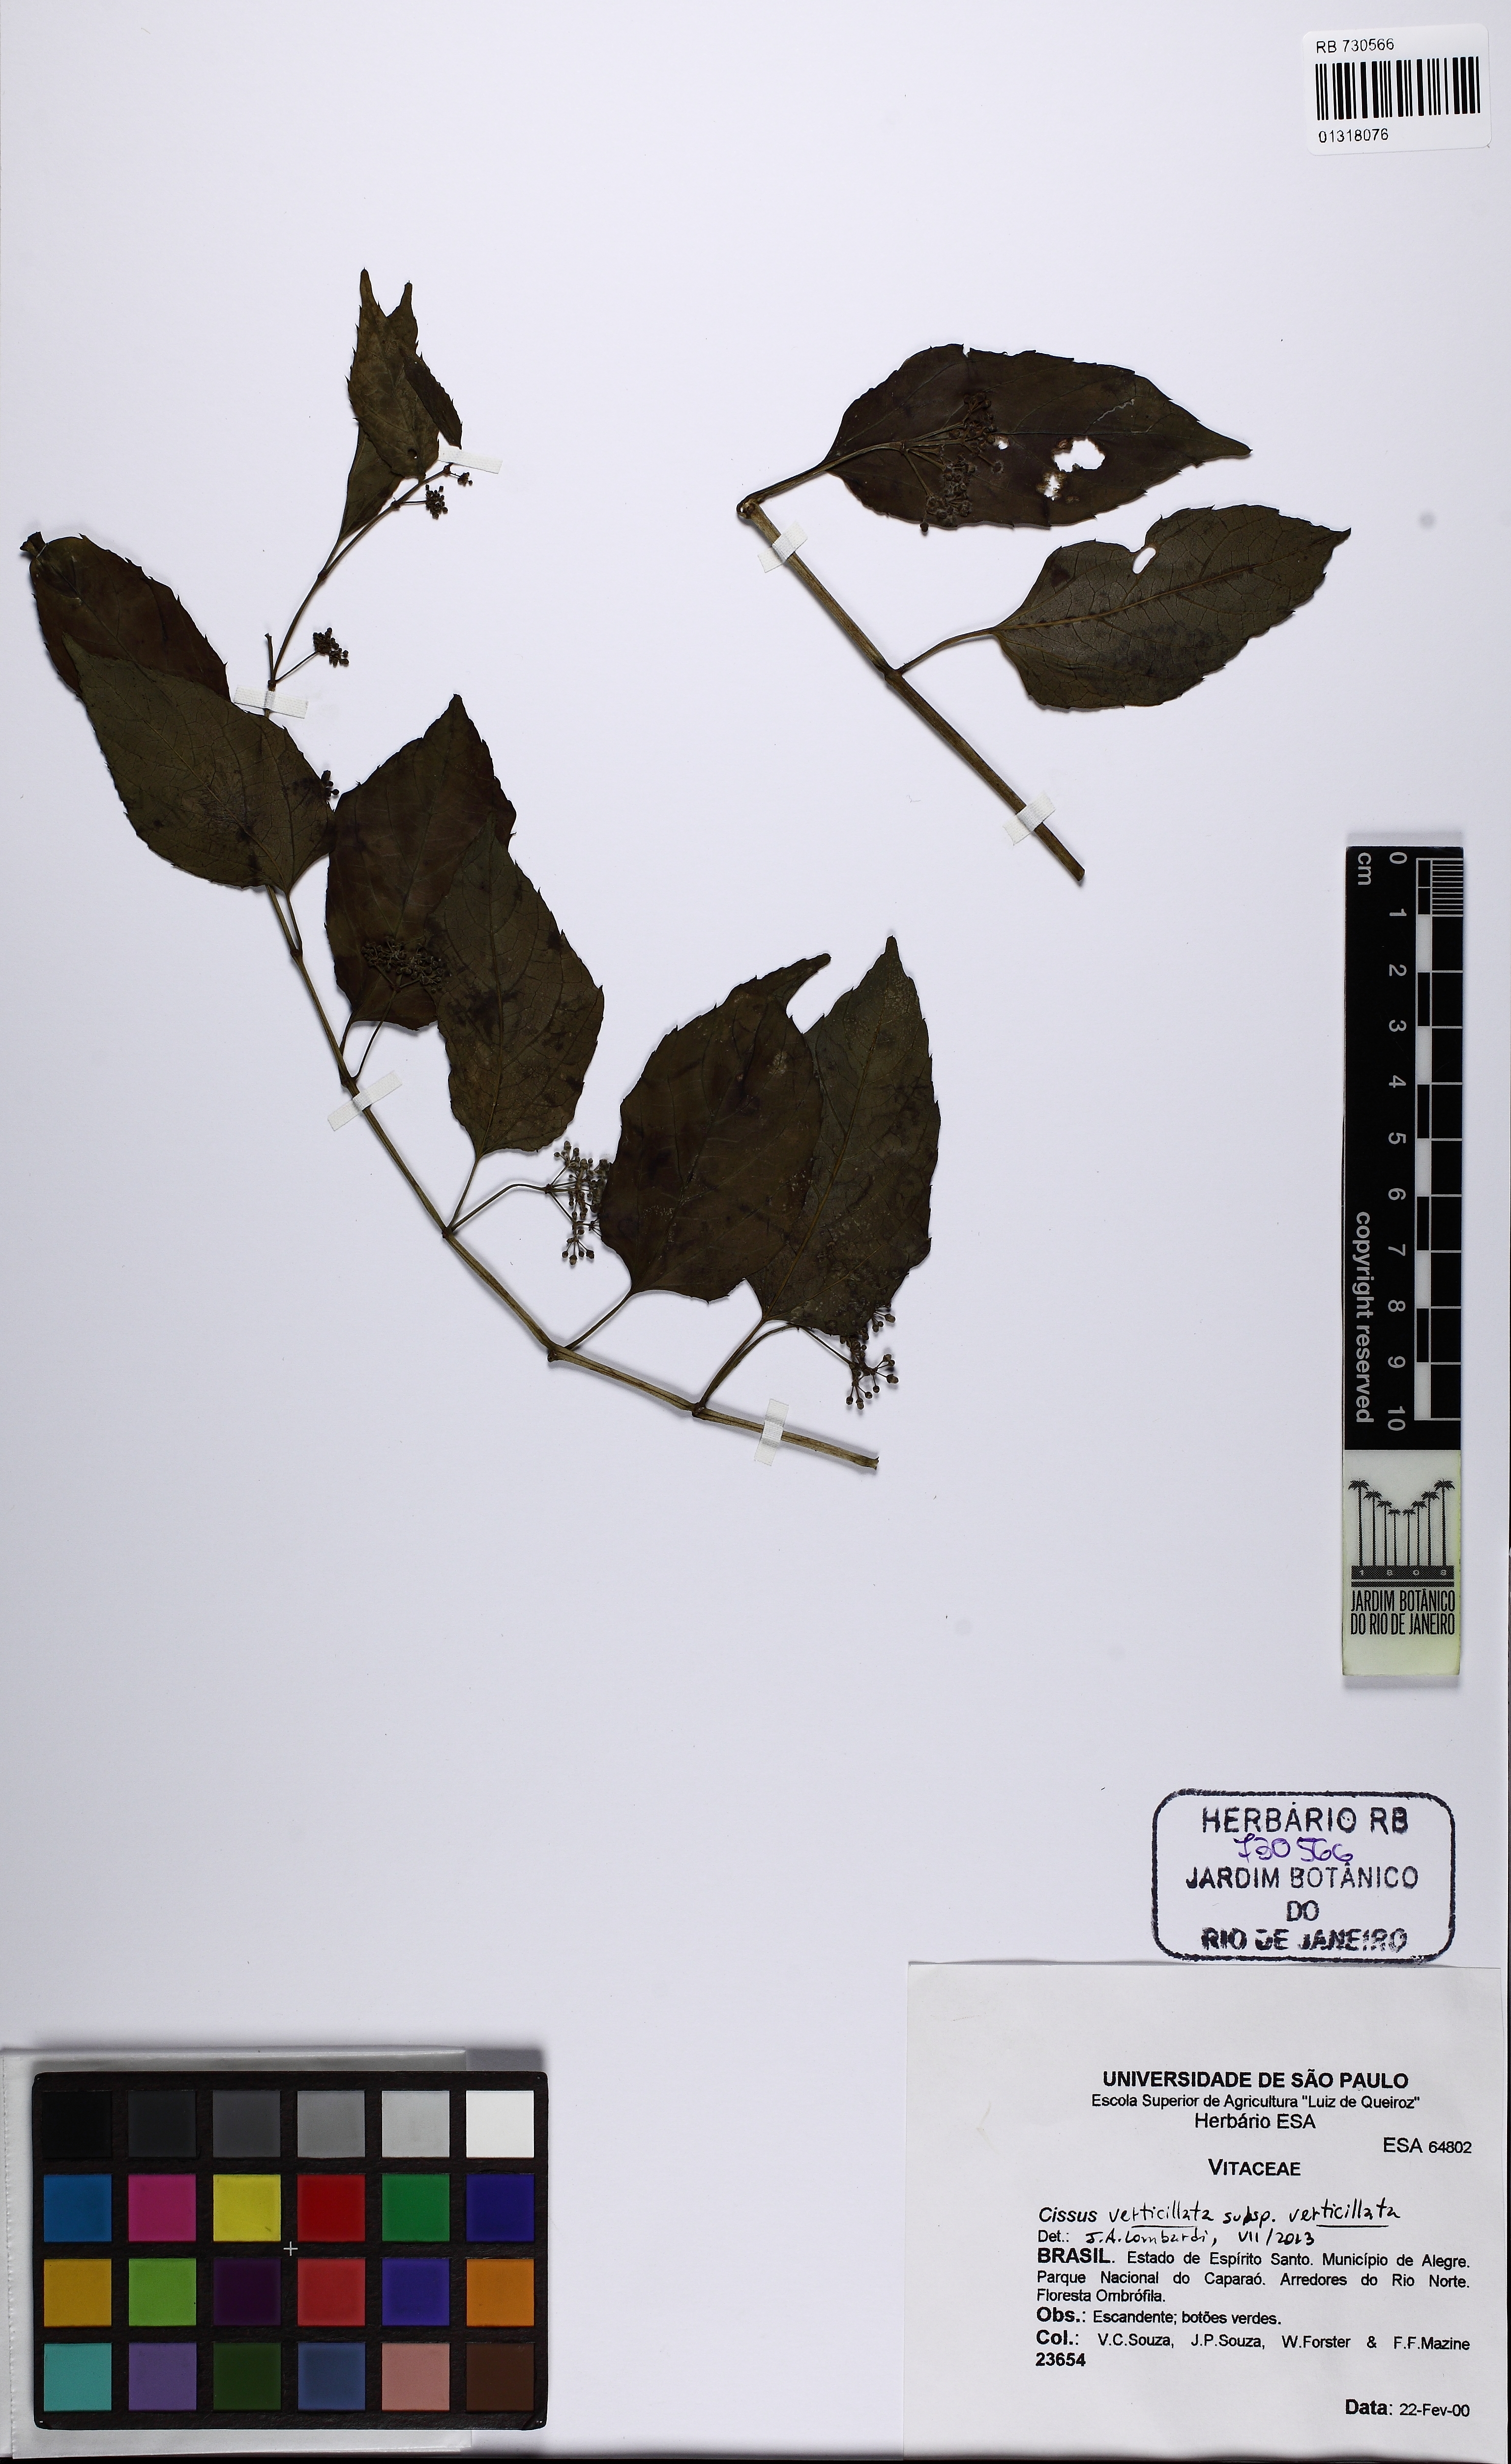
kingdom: Plantae
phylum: Tracheophyta
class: Magnoliopsida
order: Vitales
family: Vitaceae
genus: Cissus
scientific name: Cissus verticillata
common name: Princess vine
